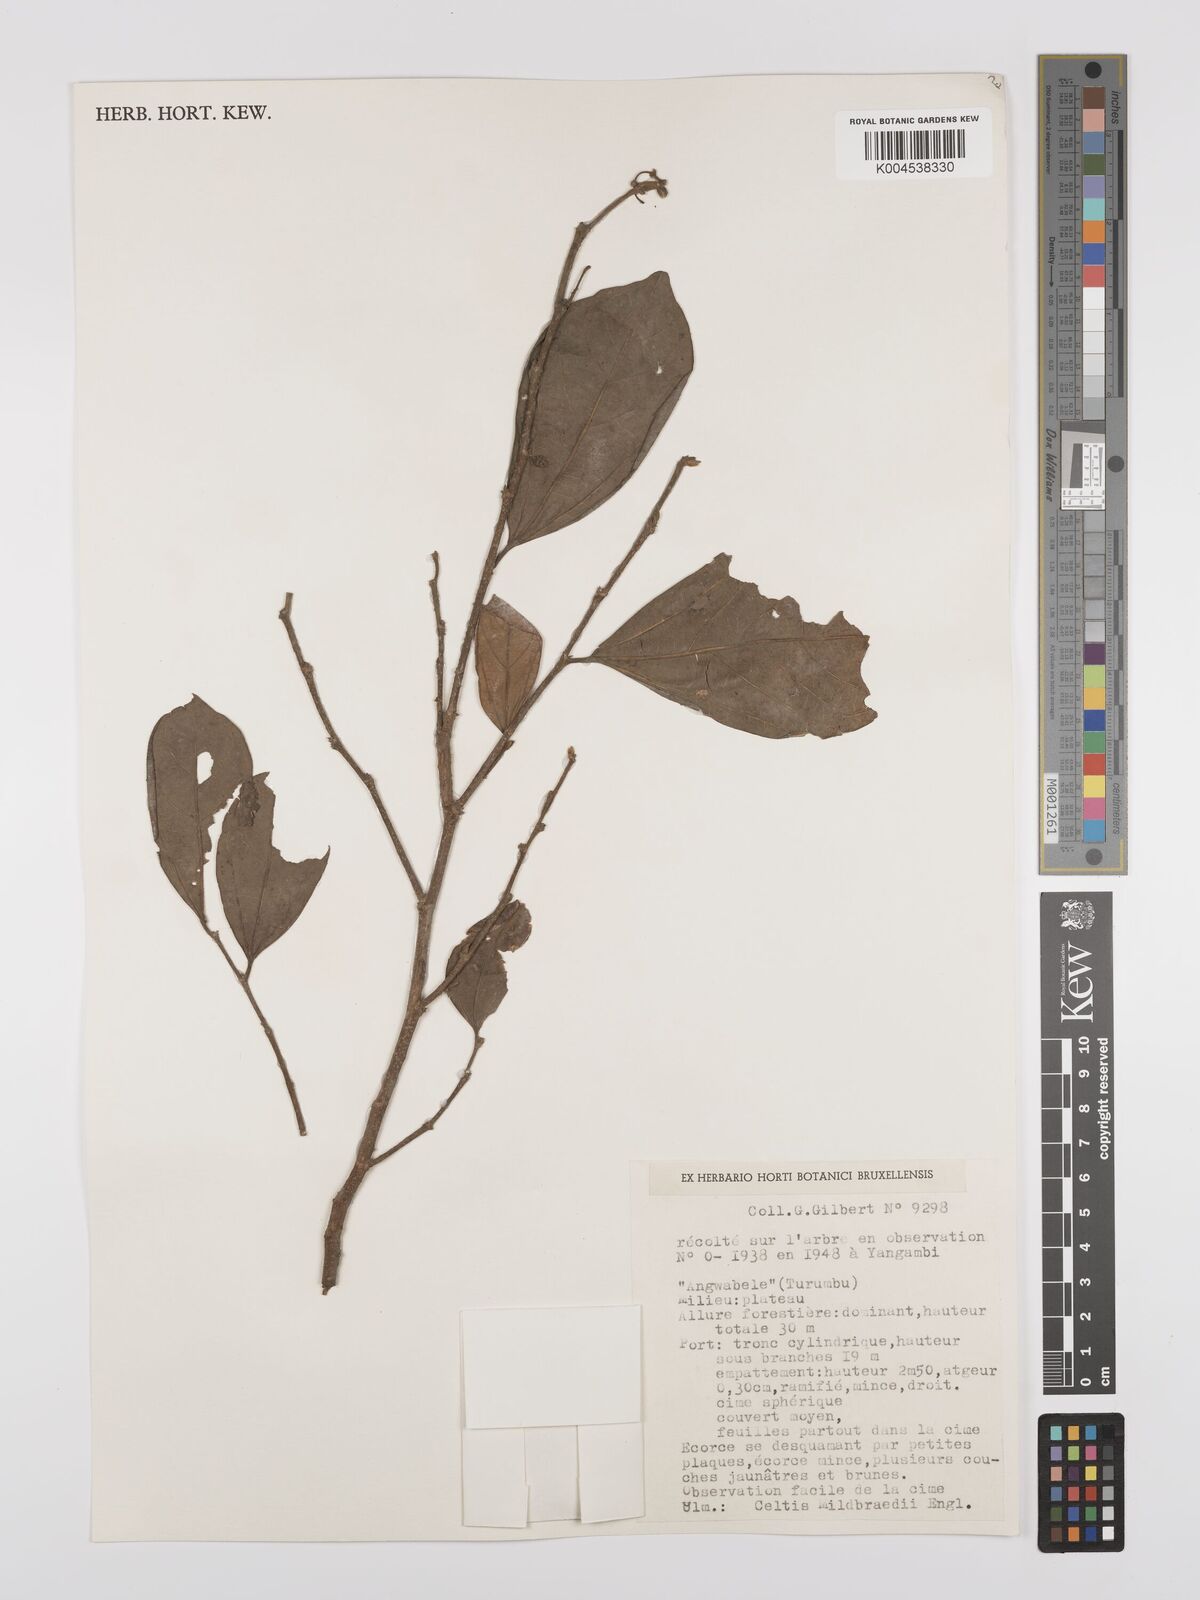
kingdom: Plantae
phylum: Tracheophyta
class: Magnoliopsida
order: Rosales
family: Cannabaceae
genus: Celtis
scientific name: Celtis mildbraedii
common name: Red-fruited stinkwood
